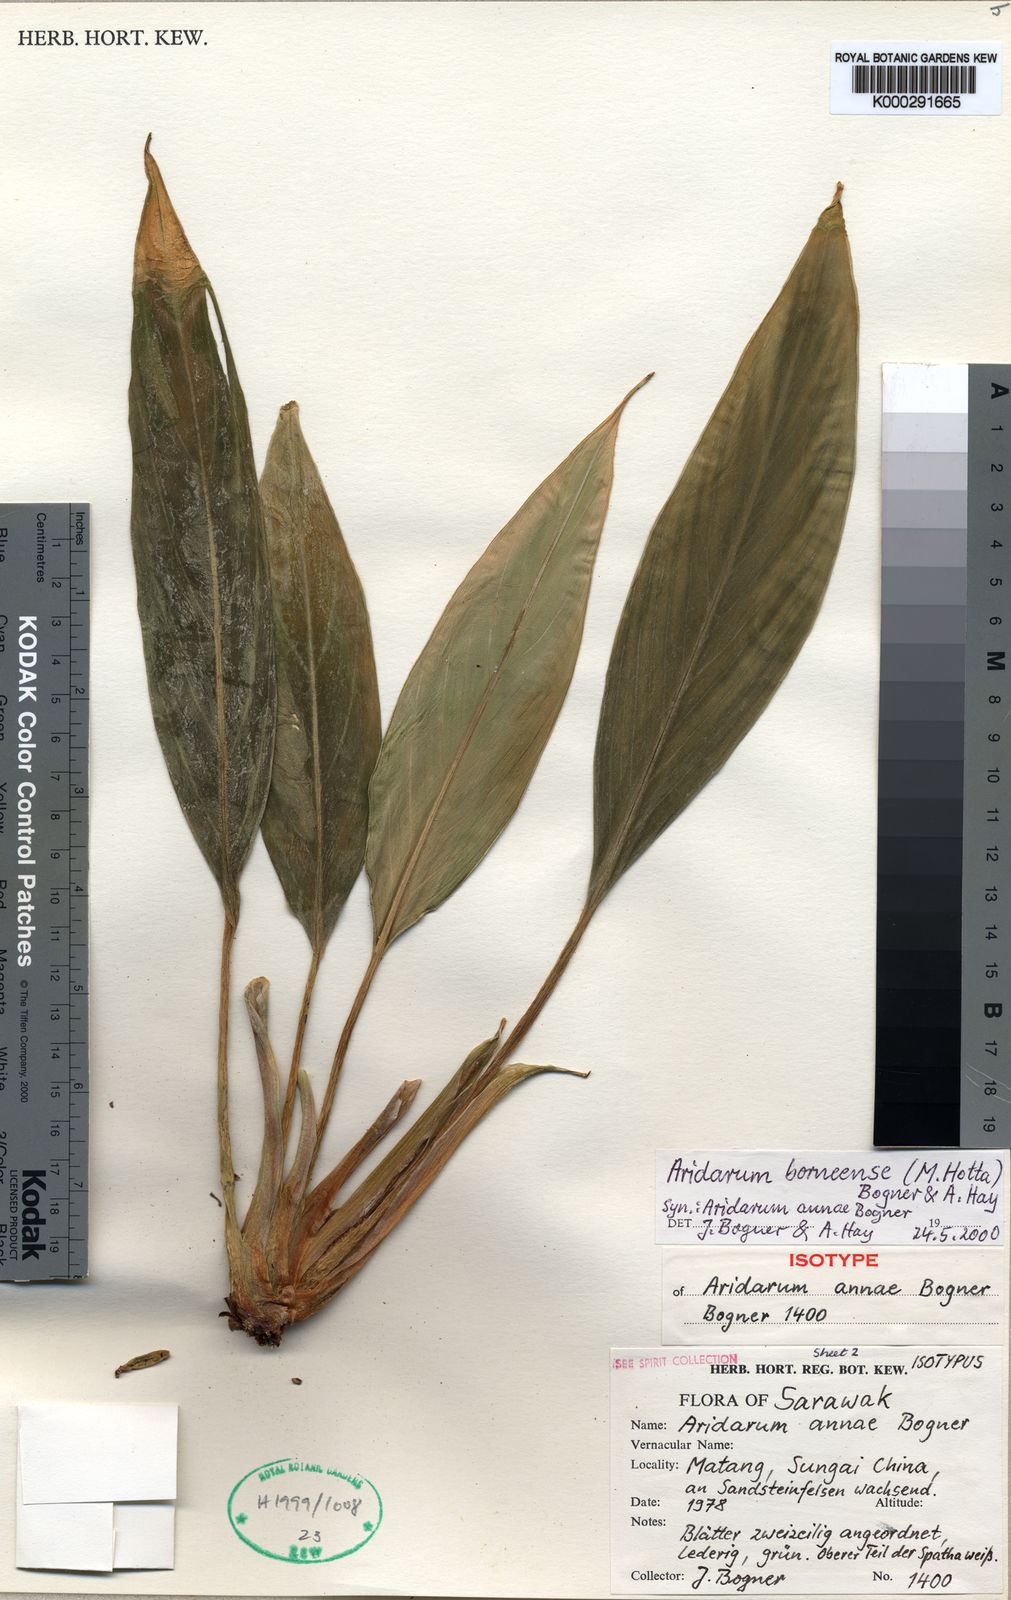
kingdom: Plantae
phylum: Tracheophyta
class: Liliopsida
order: Alismatales
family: Araceae
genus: Heteroaridarum
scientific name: Heteroaridarum borneense
